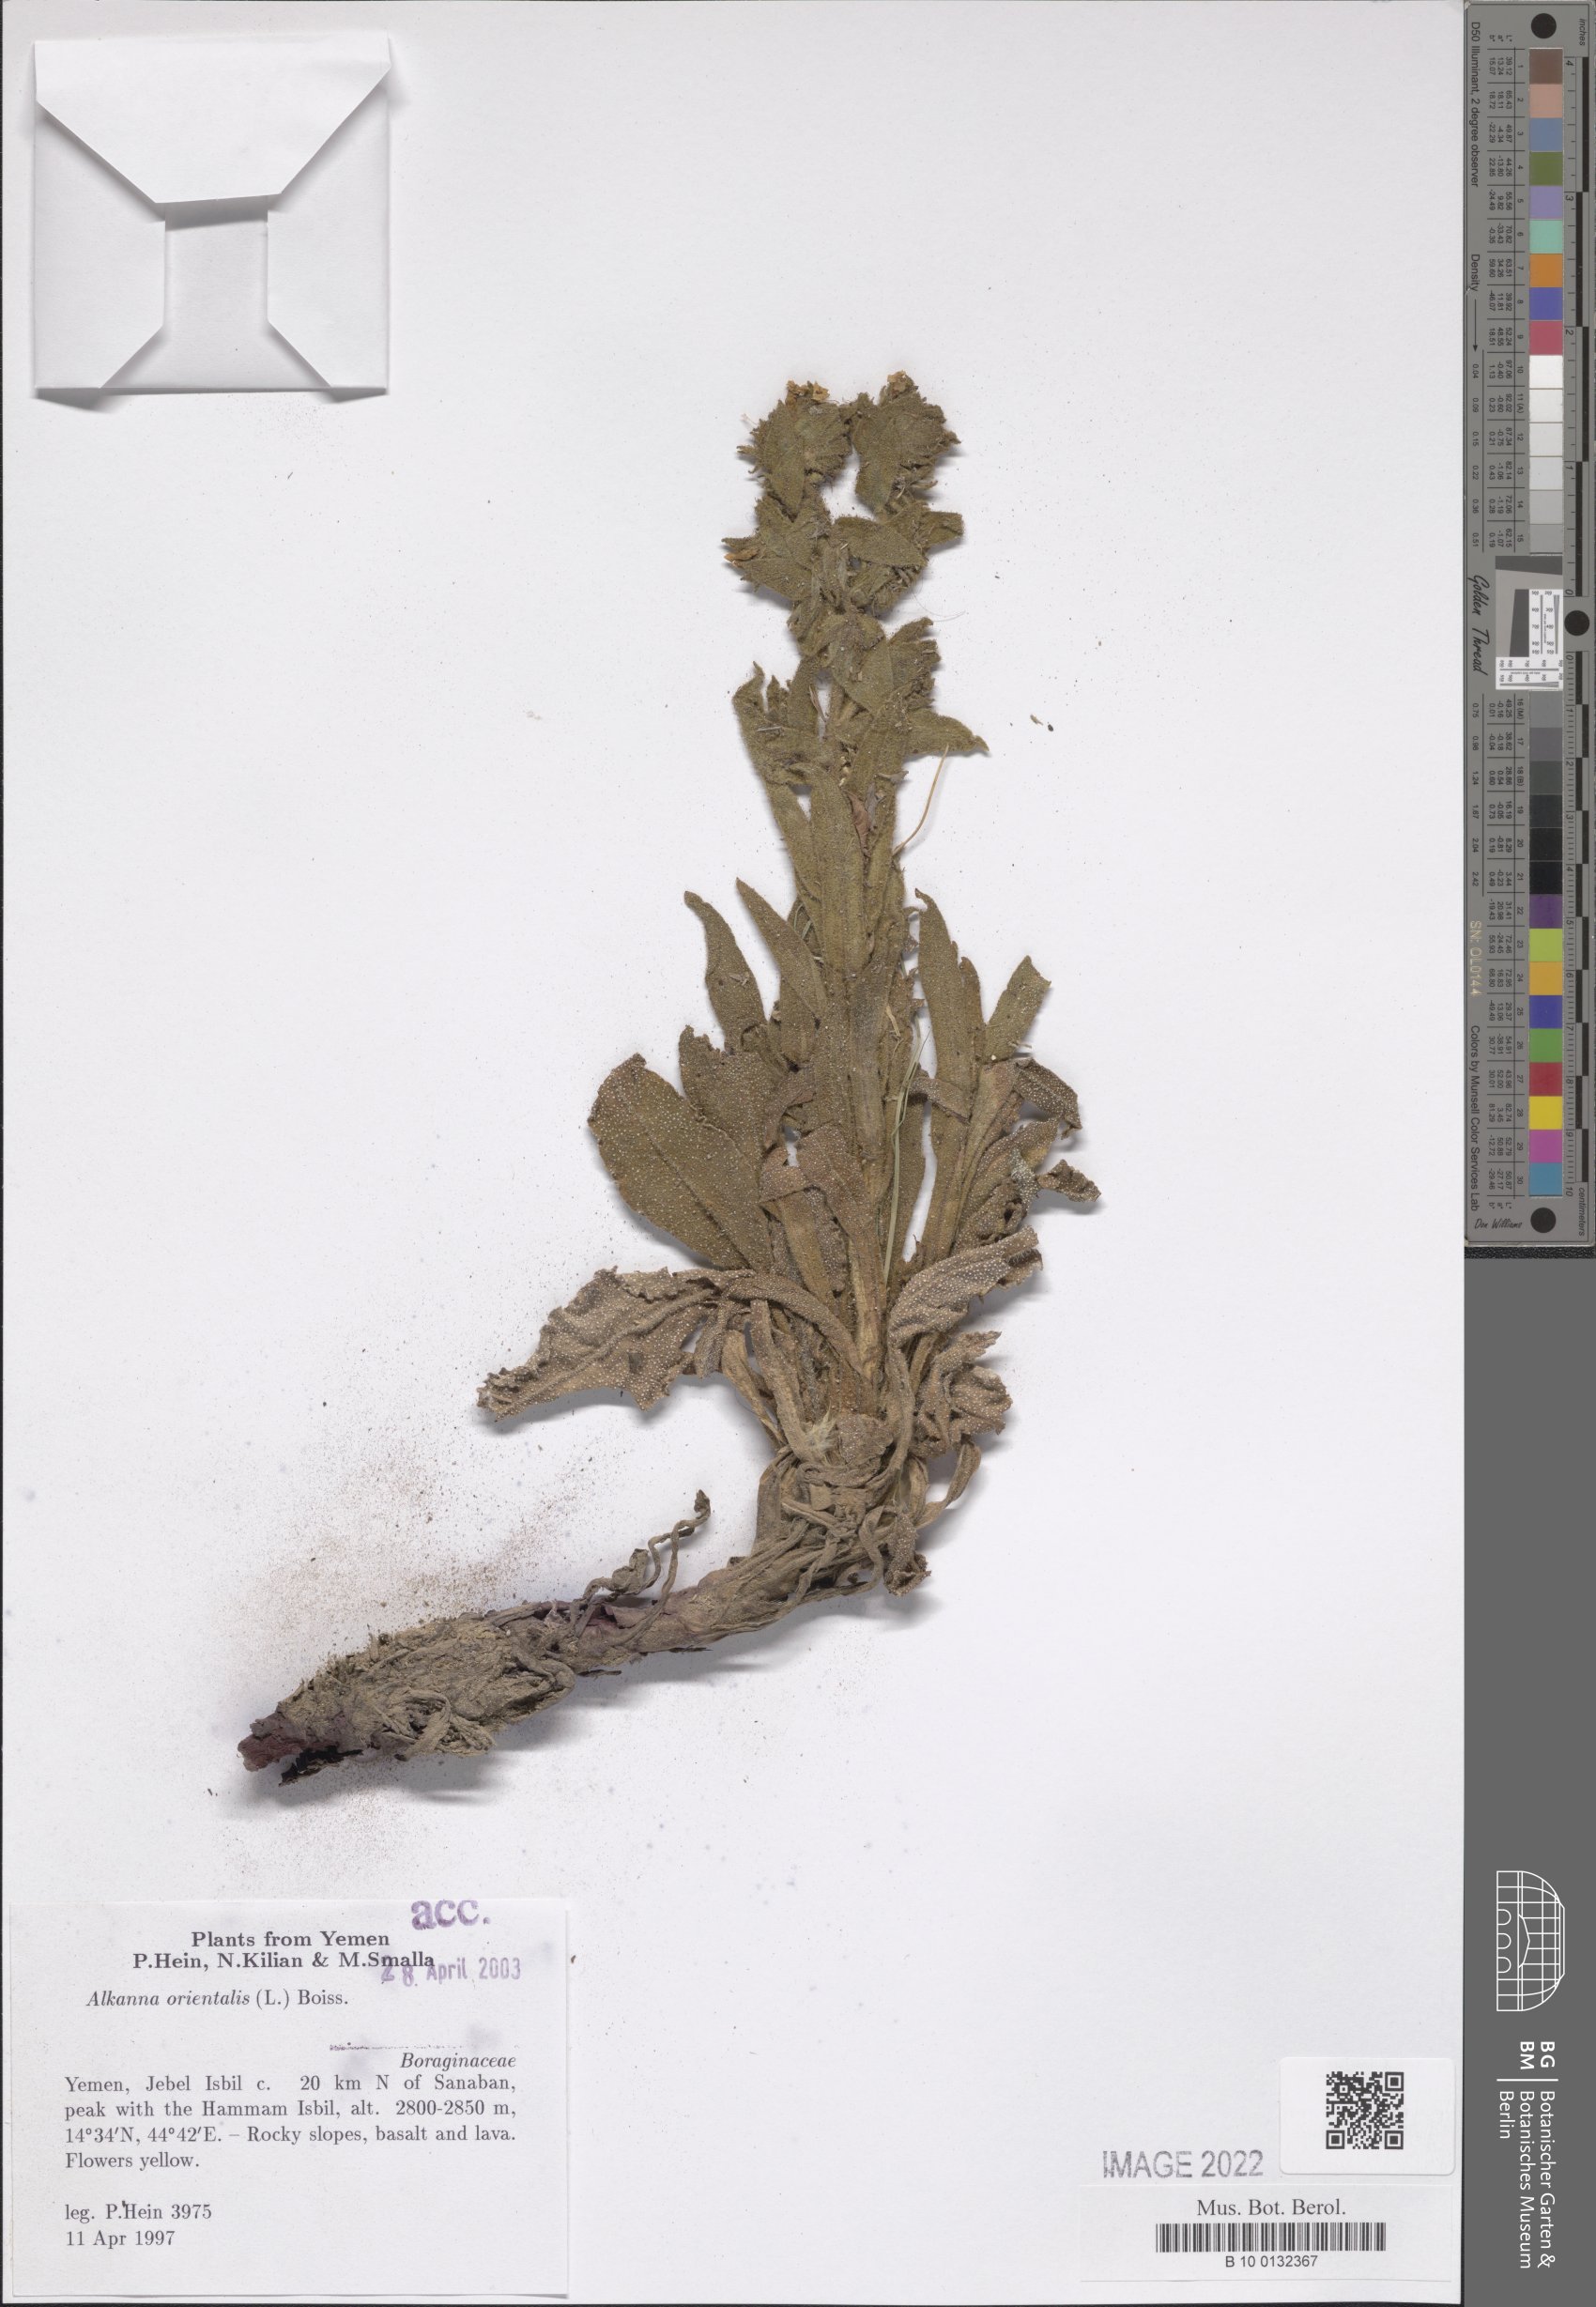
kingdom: Plantae
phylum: Tracheophyta
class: Magnoliopsida
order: Boraginales
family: Boraginaceae
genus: Alkanna
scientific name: Alkanna orientalis
